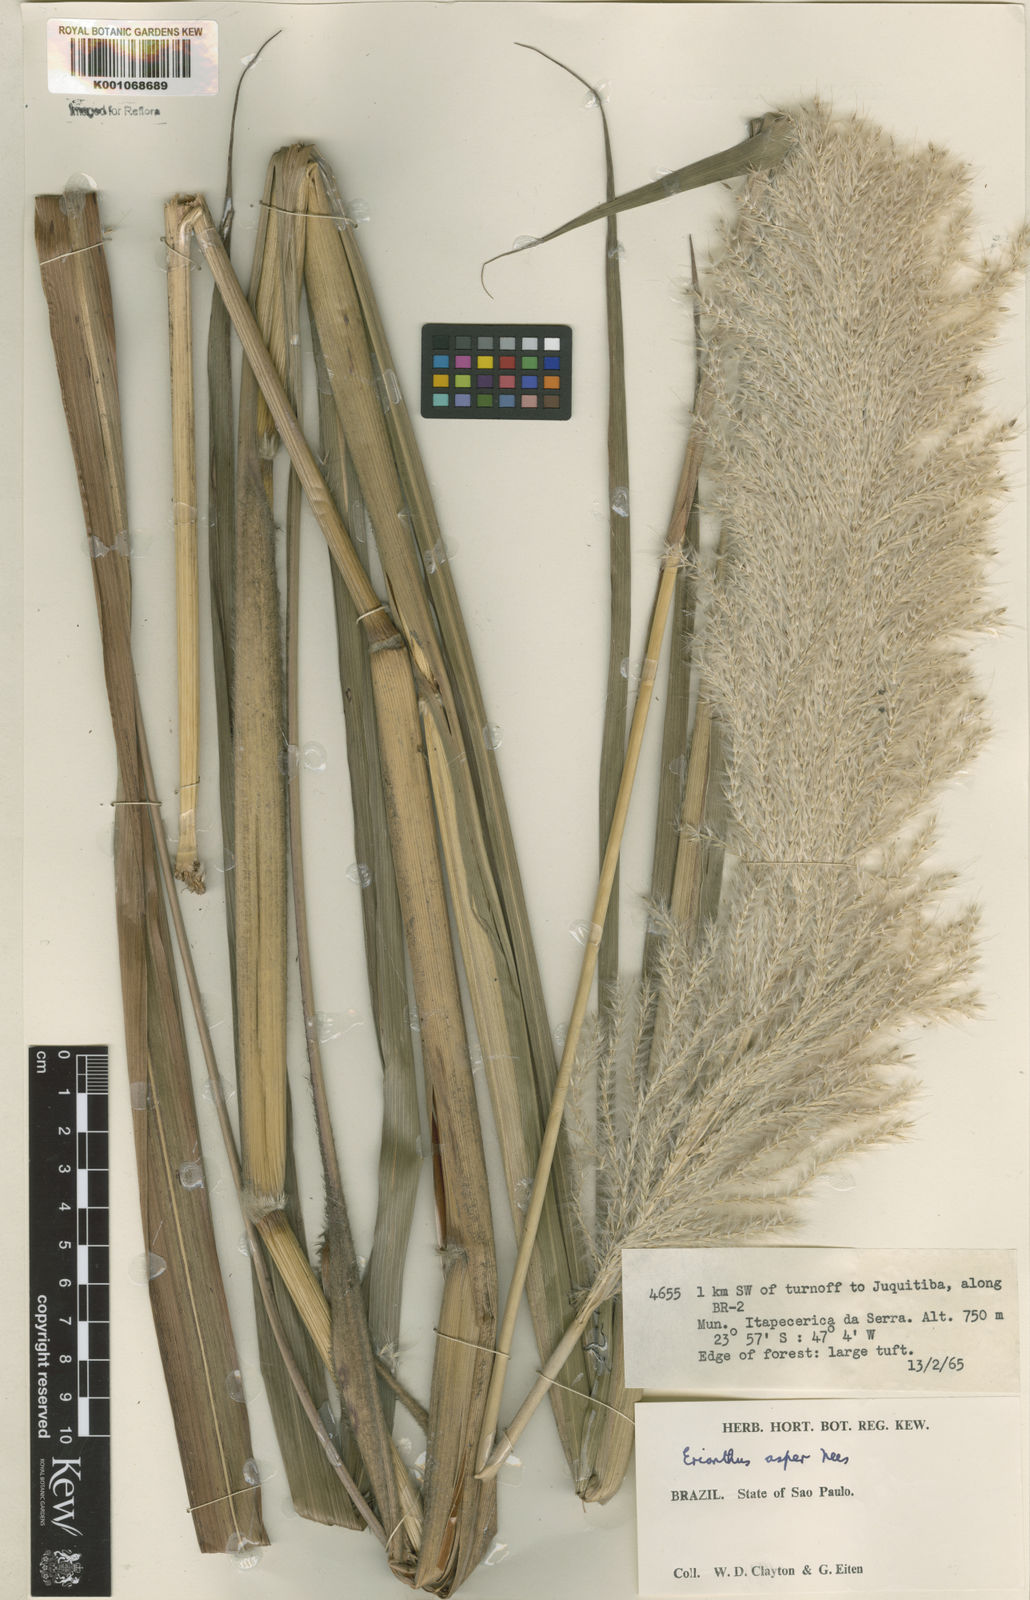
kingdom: Plantae
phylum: Tracheophyta
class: Liliopsida
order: Poales
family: Poaceae
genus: Erianthus
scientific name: Erianthus asper
